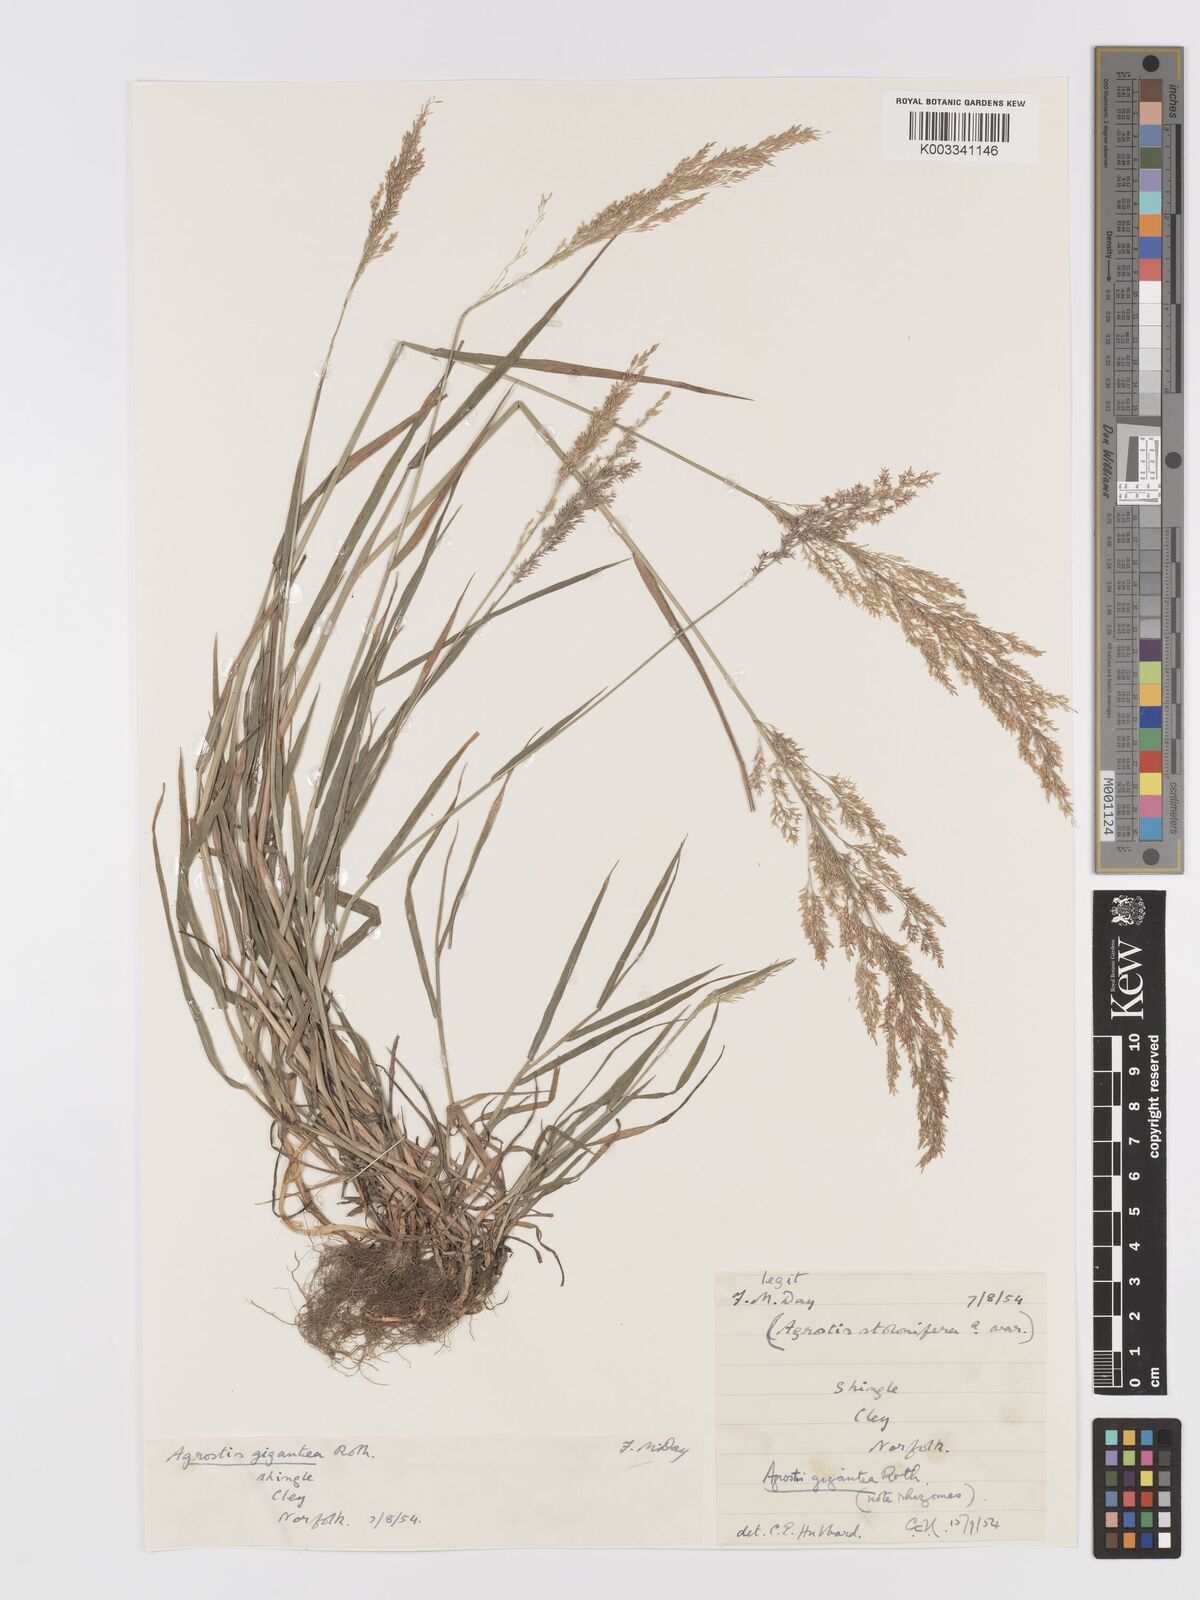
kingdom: Plantae
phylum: Tracheophyta
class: Liliopsida
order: Poales
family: Poaceae
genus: Agrostis
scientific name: Agrostis gigantea
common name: Black bent
